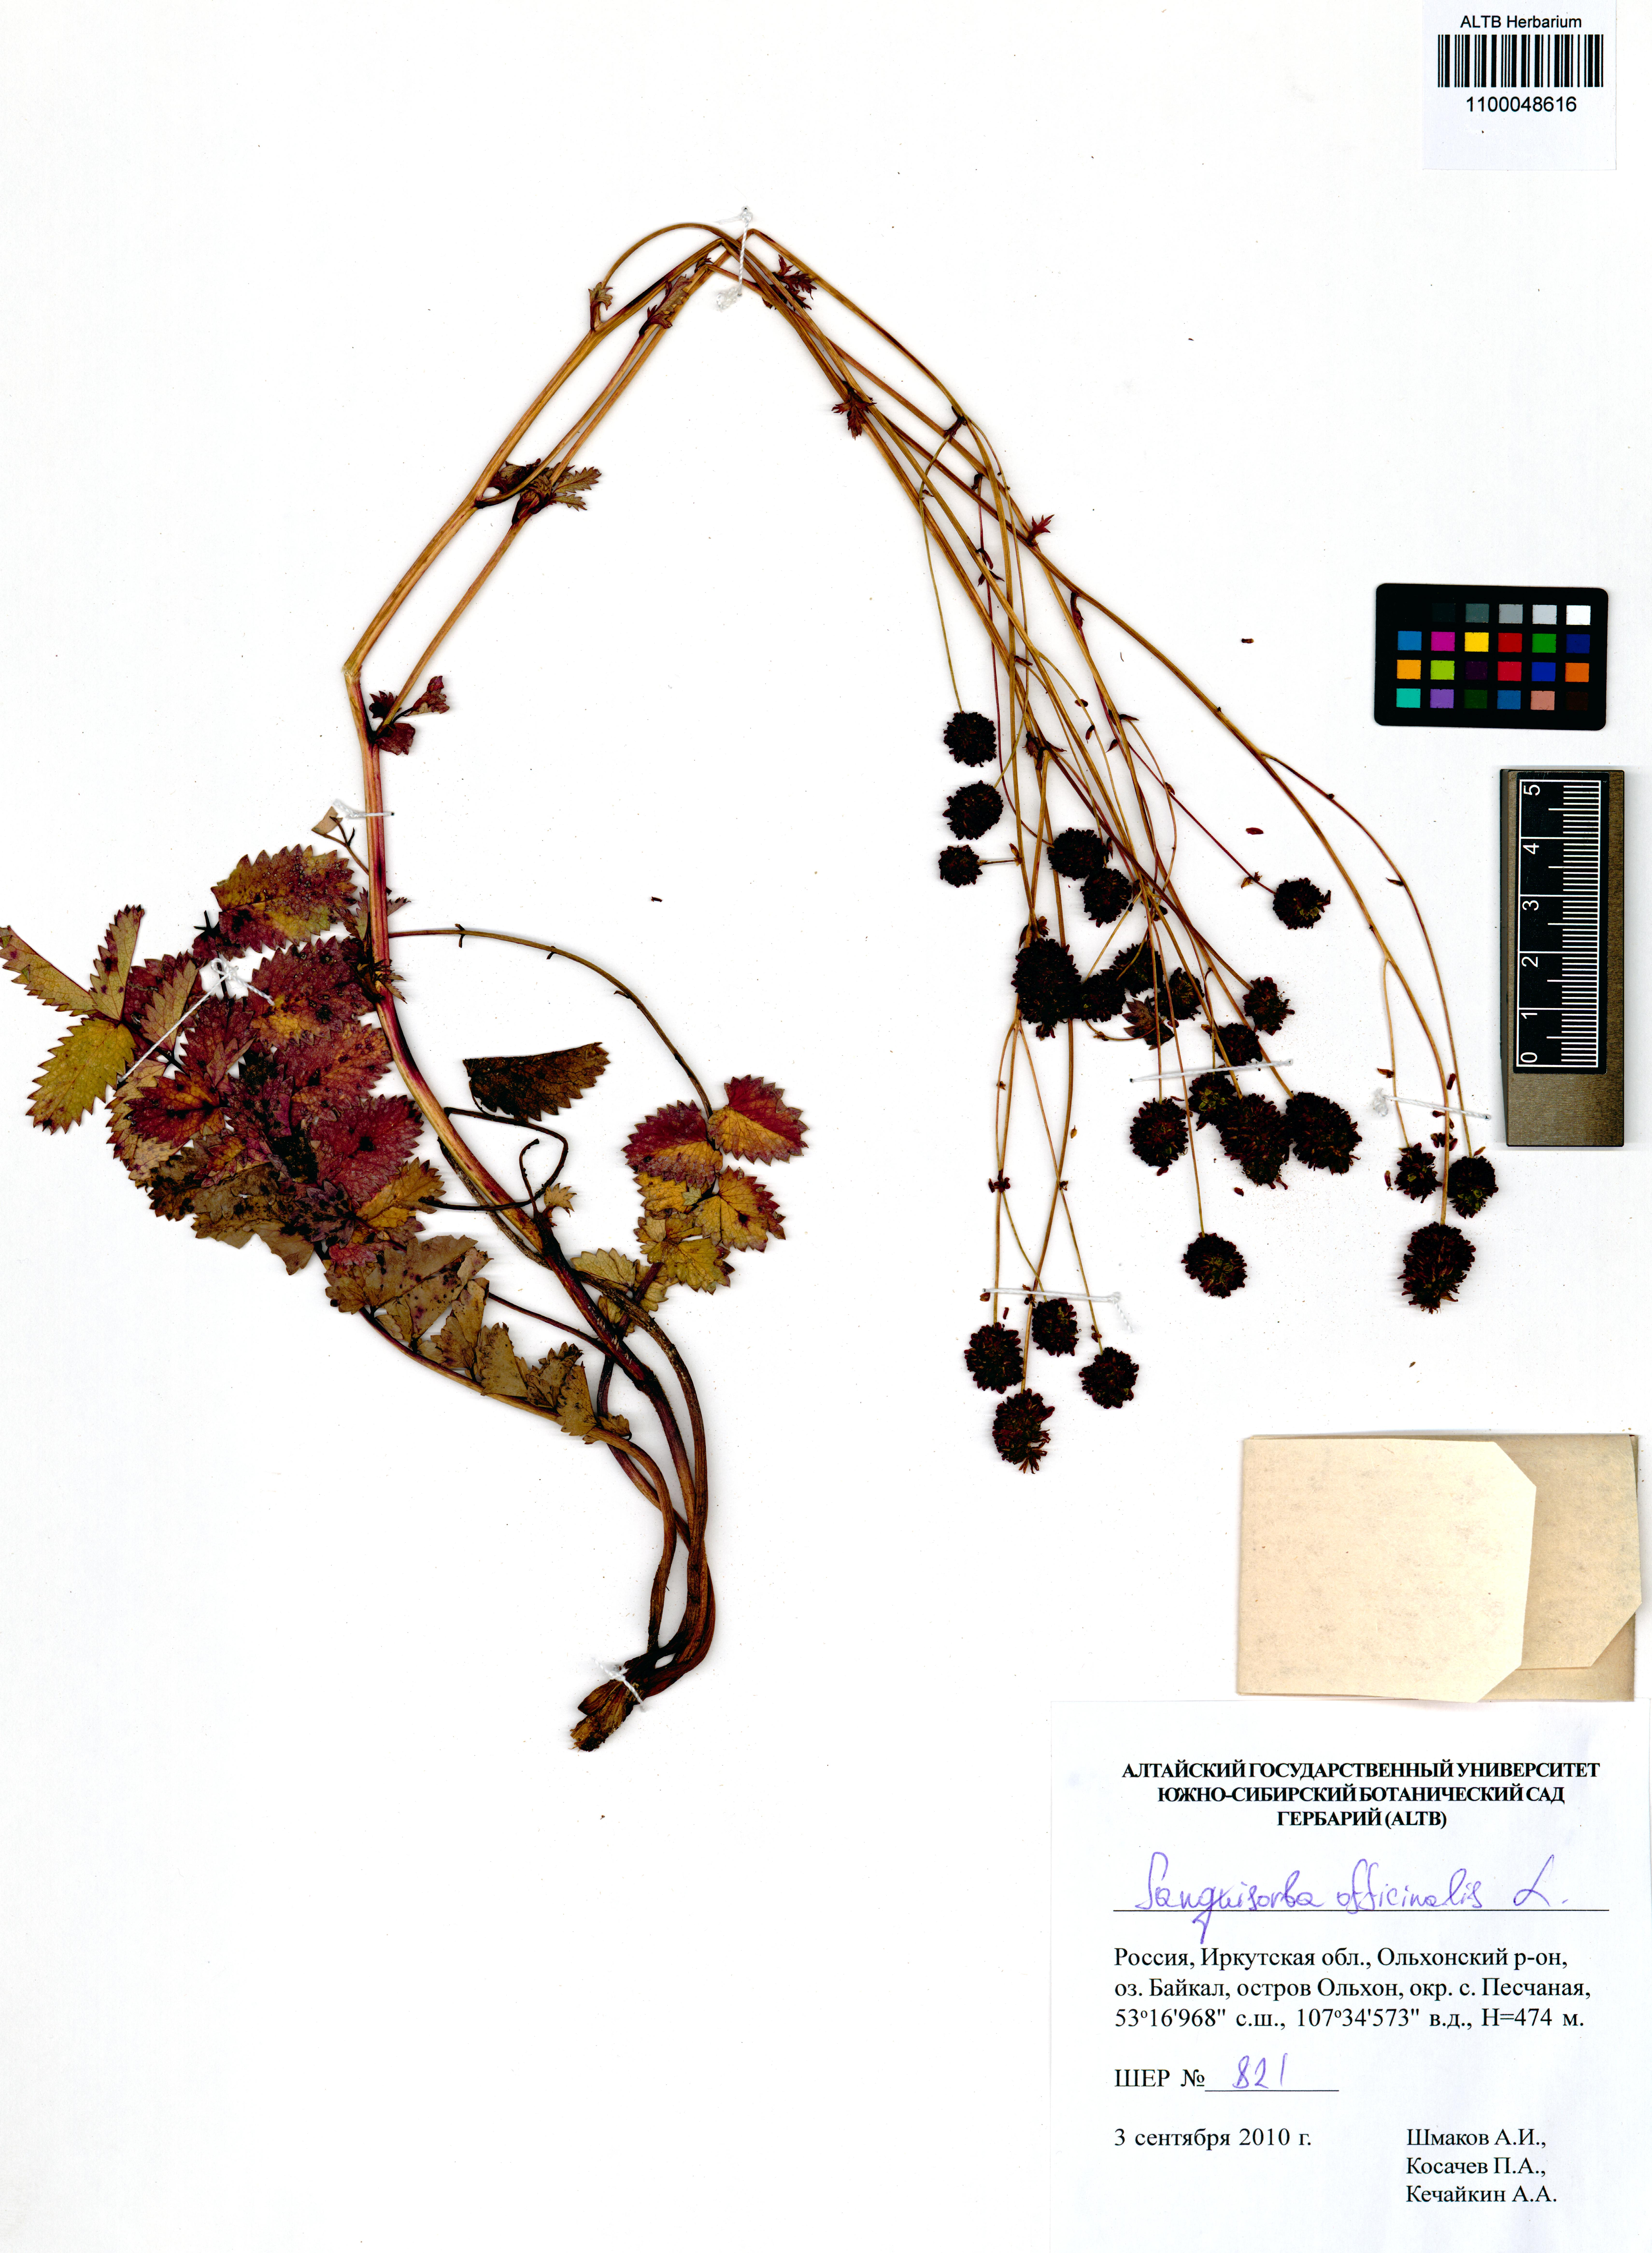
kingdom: Plantae
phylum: Tracheophyta
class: Magnoliopsida
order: Rosales
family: Rosaceae
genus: Sanguisorba
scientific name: Sanguisorba officinalis
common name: Great burnet
